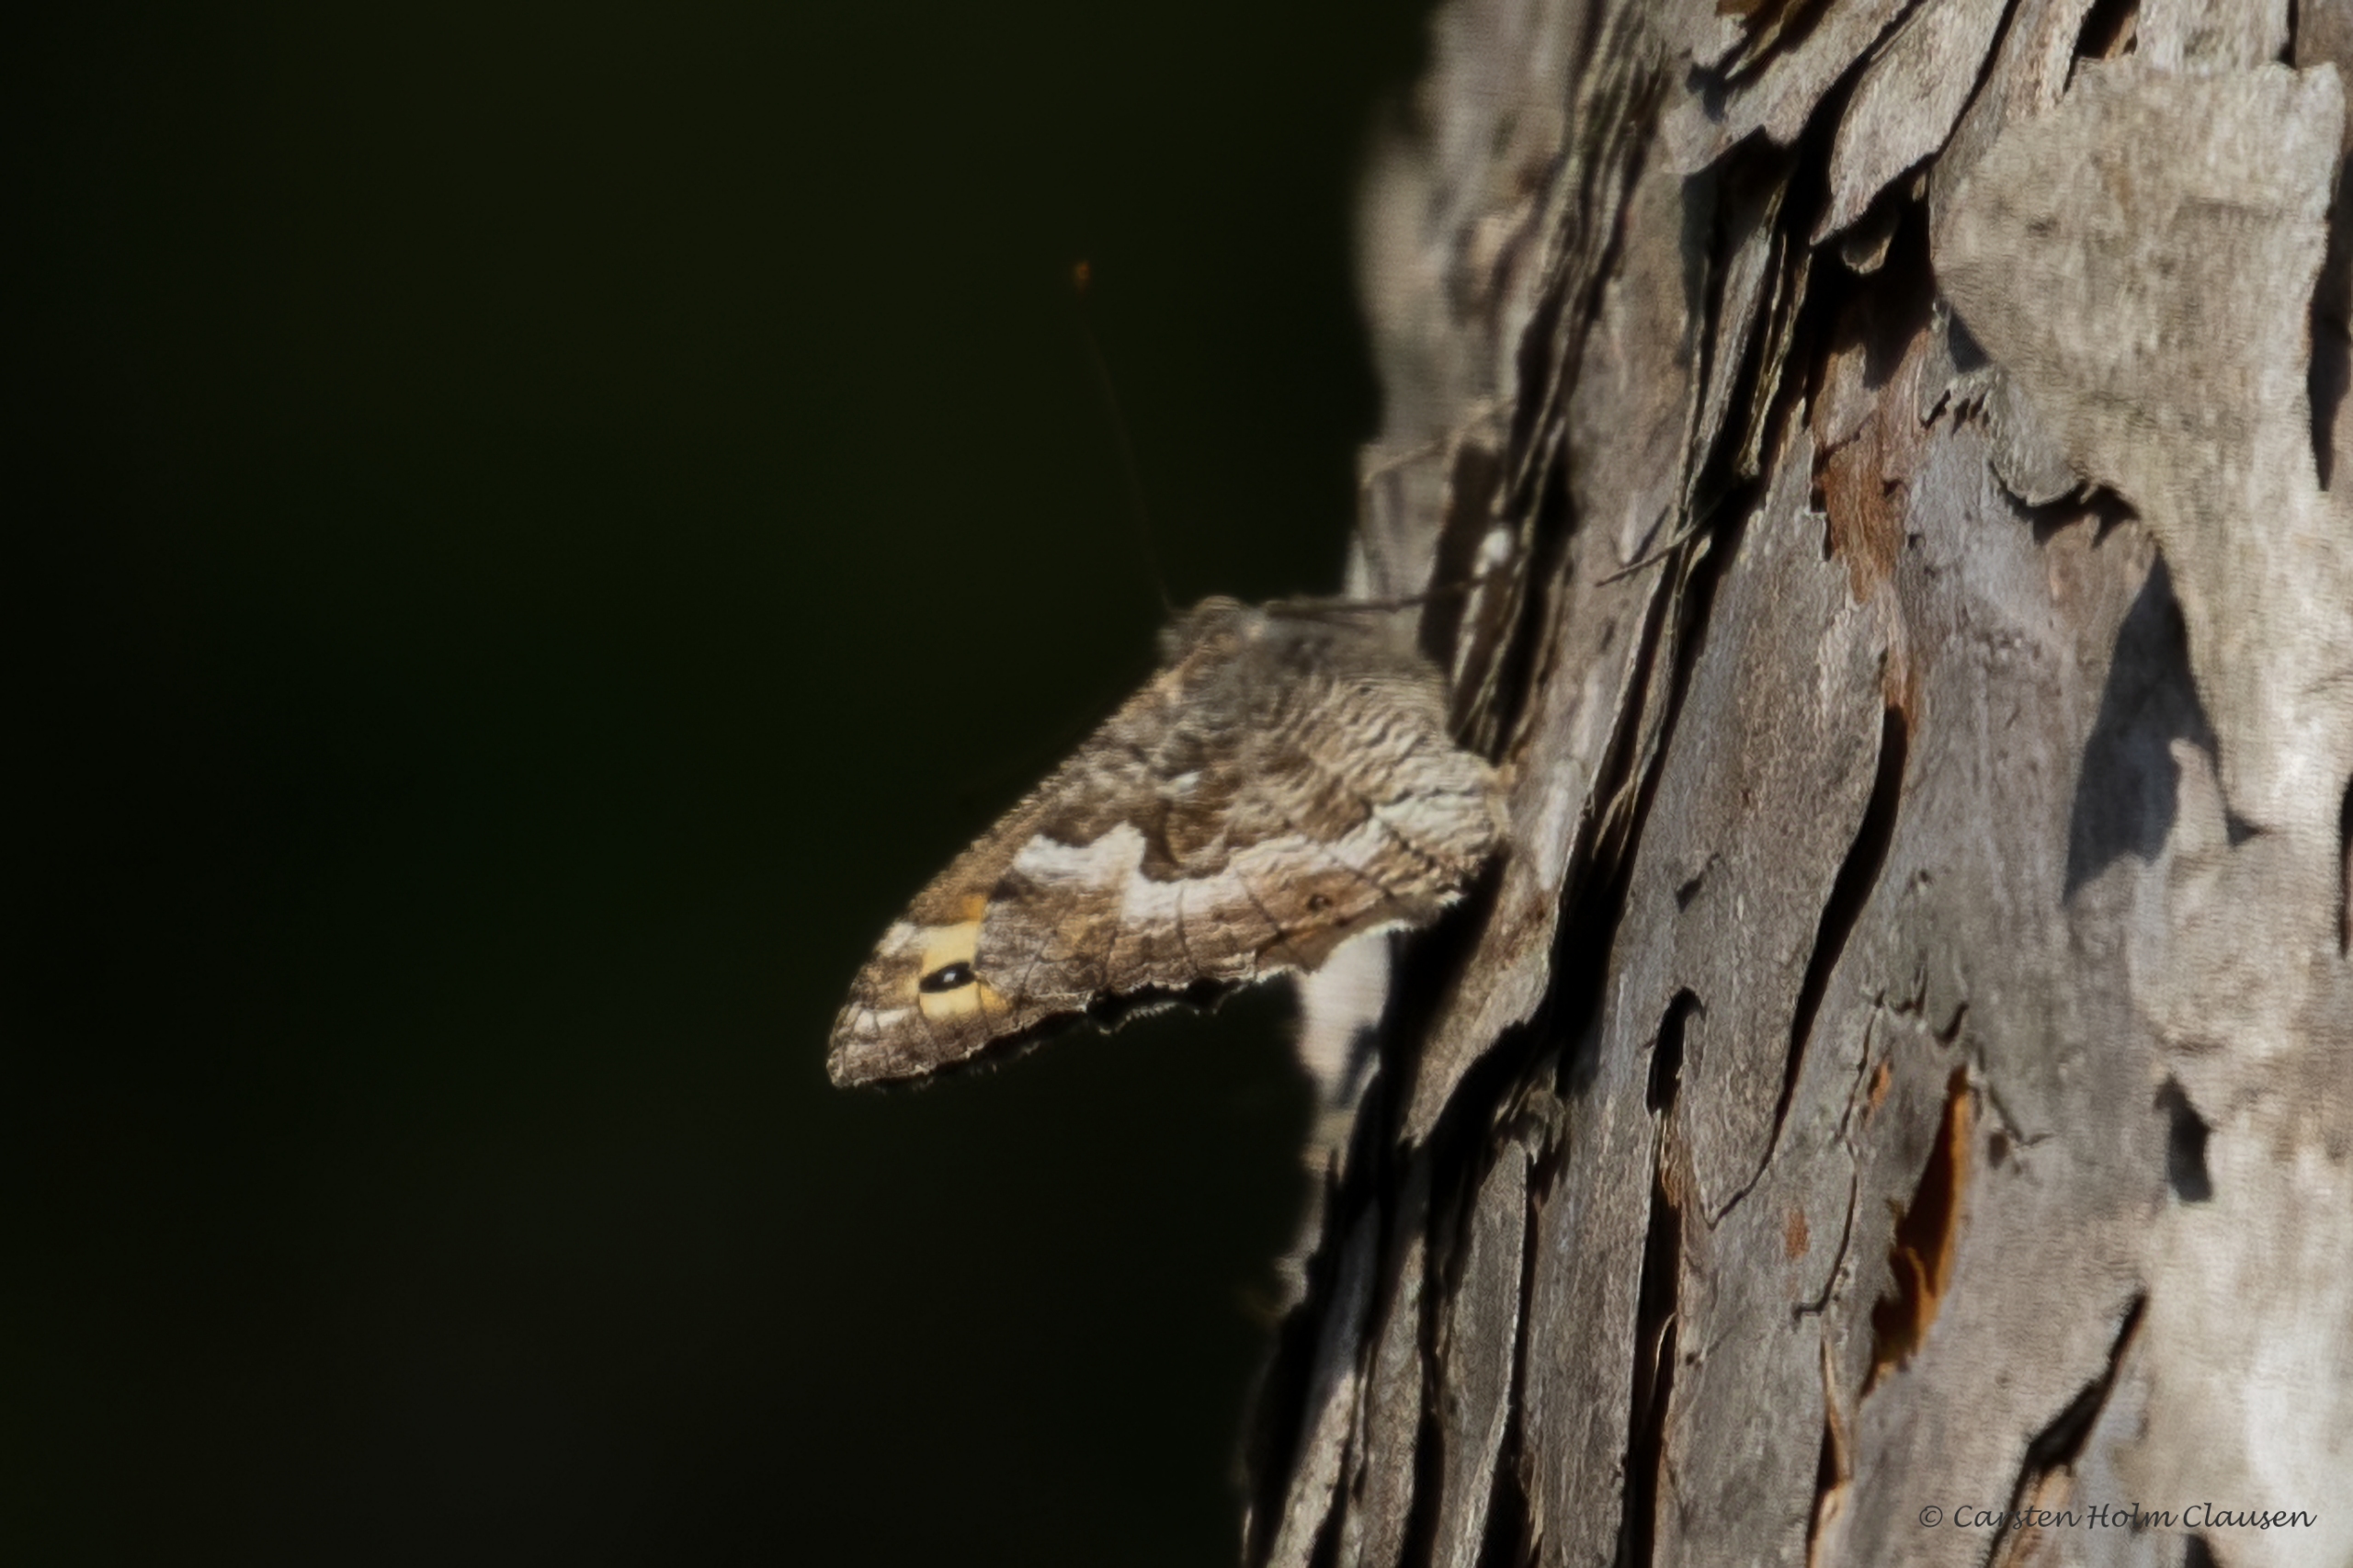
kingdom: Animalia
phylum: Arthropoda
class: Insecta
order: Lepidoptera
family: Nymphalidae
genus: Hipparchia
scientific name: Hipparchia semele
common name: Sandrandøje
